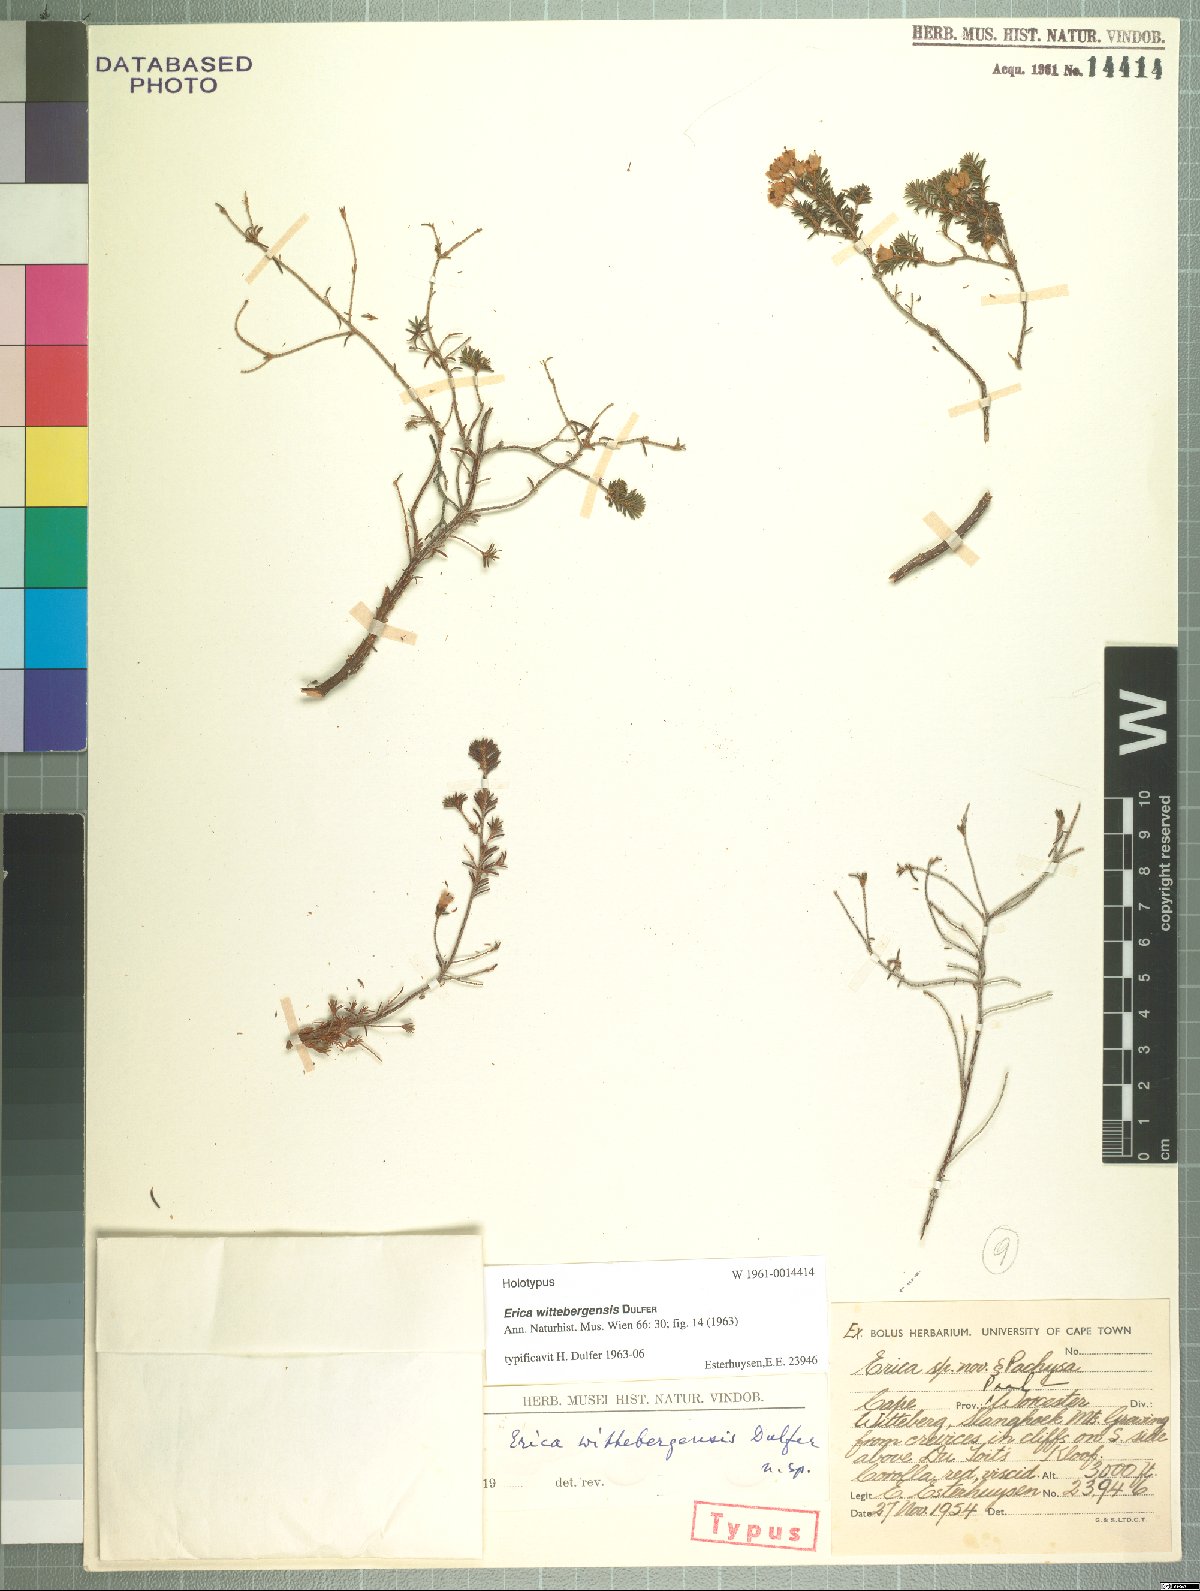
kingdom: Plantae
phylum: Tracheophyta
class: Magnoliopsida
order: Ericales
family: Ericaceae
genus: Erica
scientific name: Erica wittebergensis
